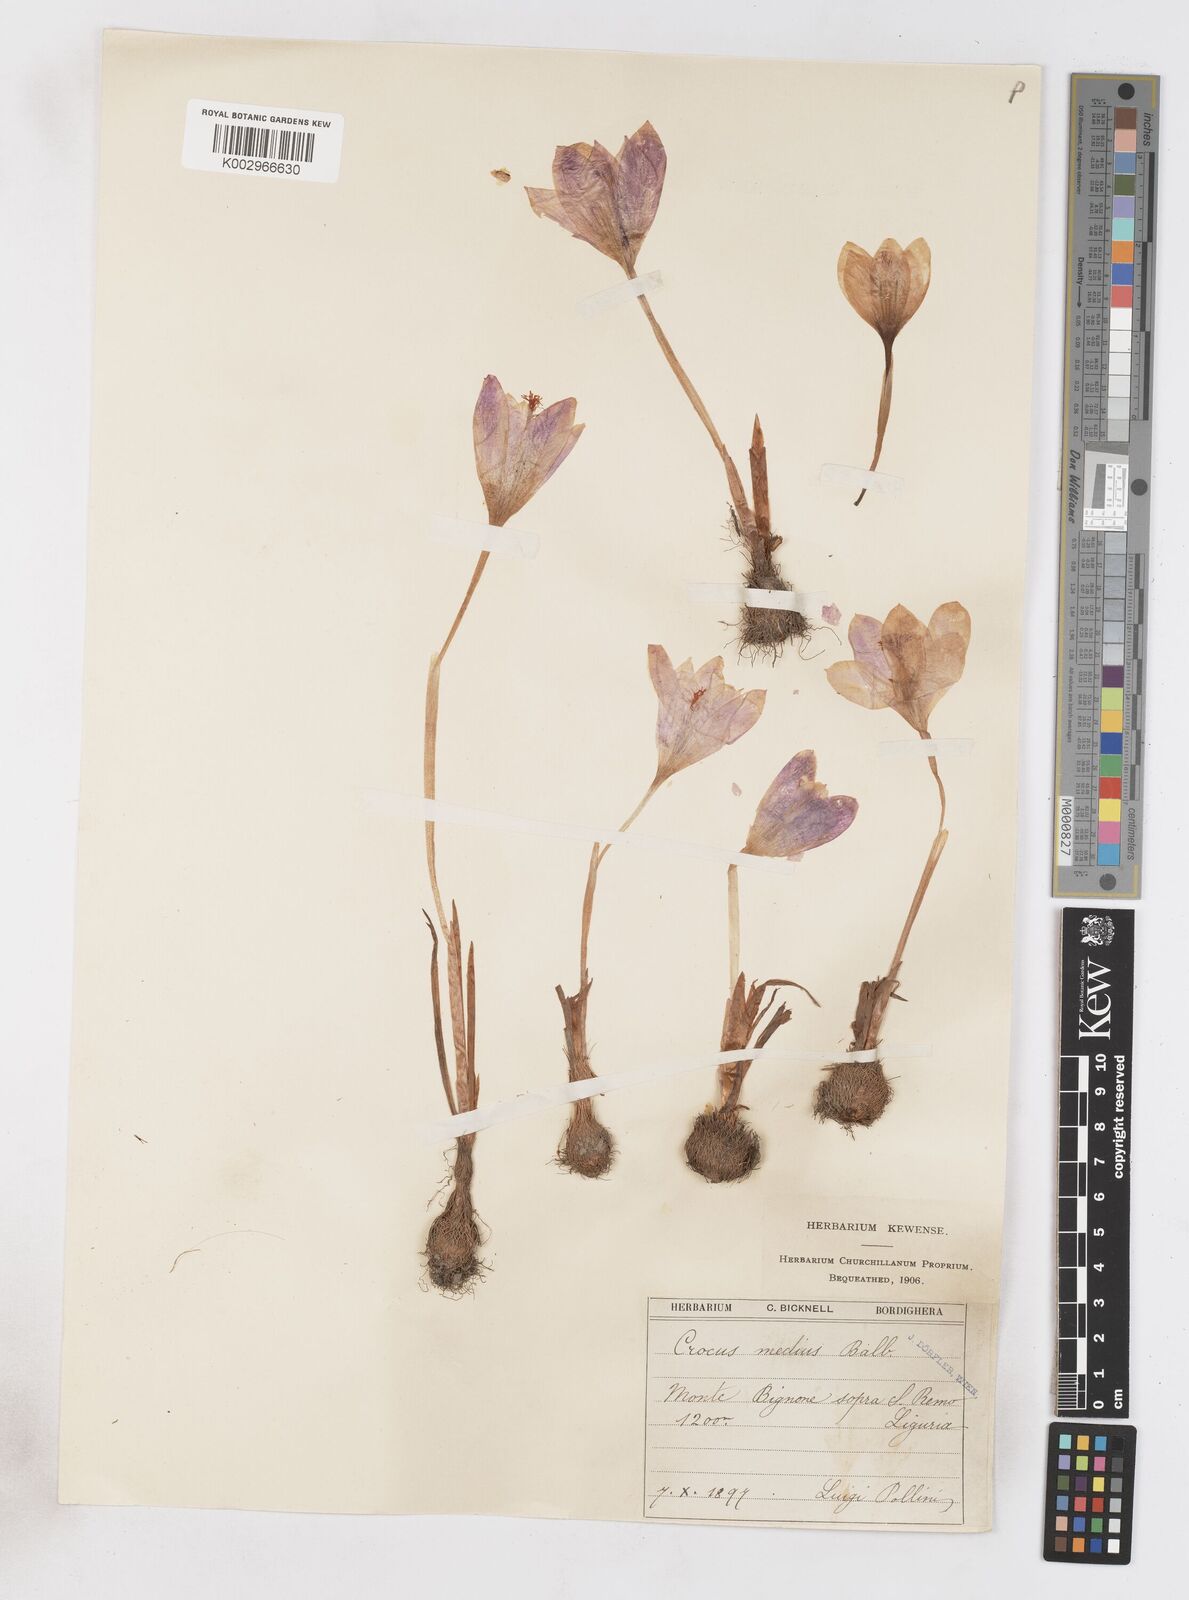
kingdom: Plantae
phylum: Tracheophyta
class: Liliopsida
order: Asparagales
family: Iridaceae
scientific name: Iridaceae
